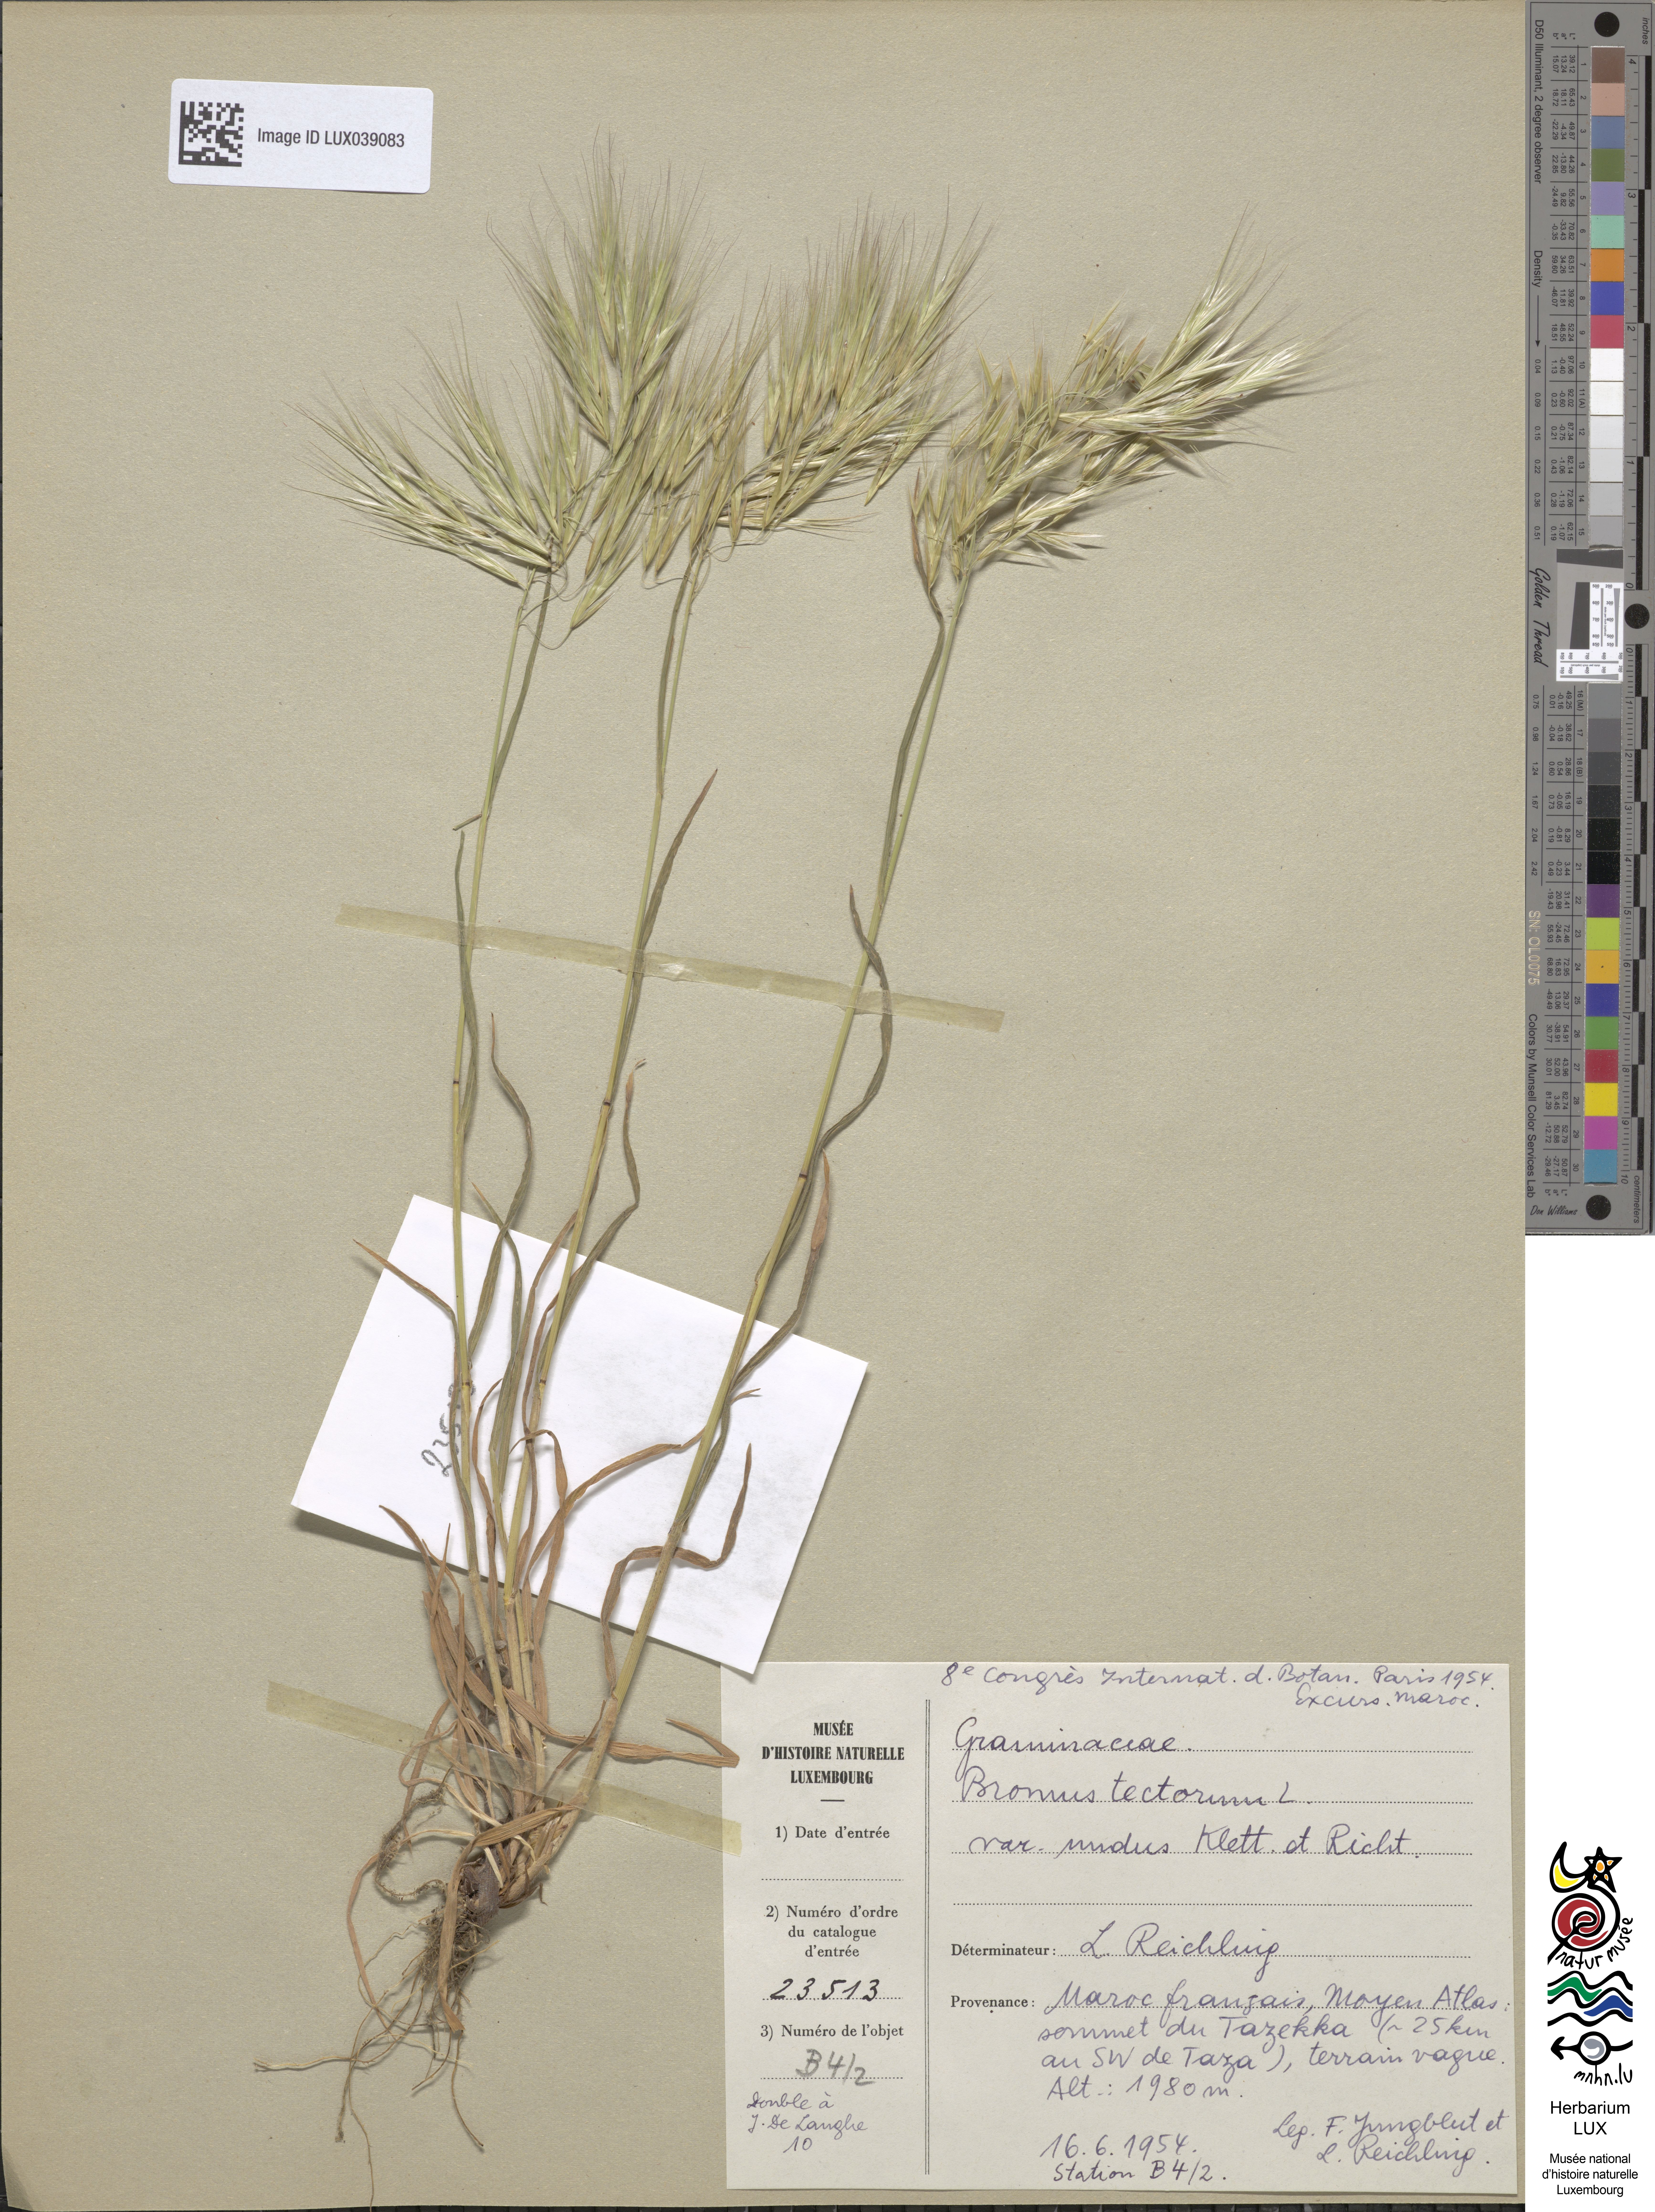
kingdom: Plantae
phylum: Tracheophyta
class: Liliopsida
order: Poales
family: Poaceae
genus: Bromus
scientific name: Bromus tectorum
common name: Cheatgrass
